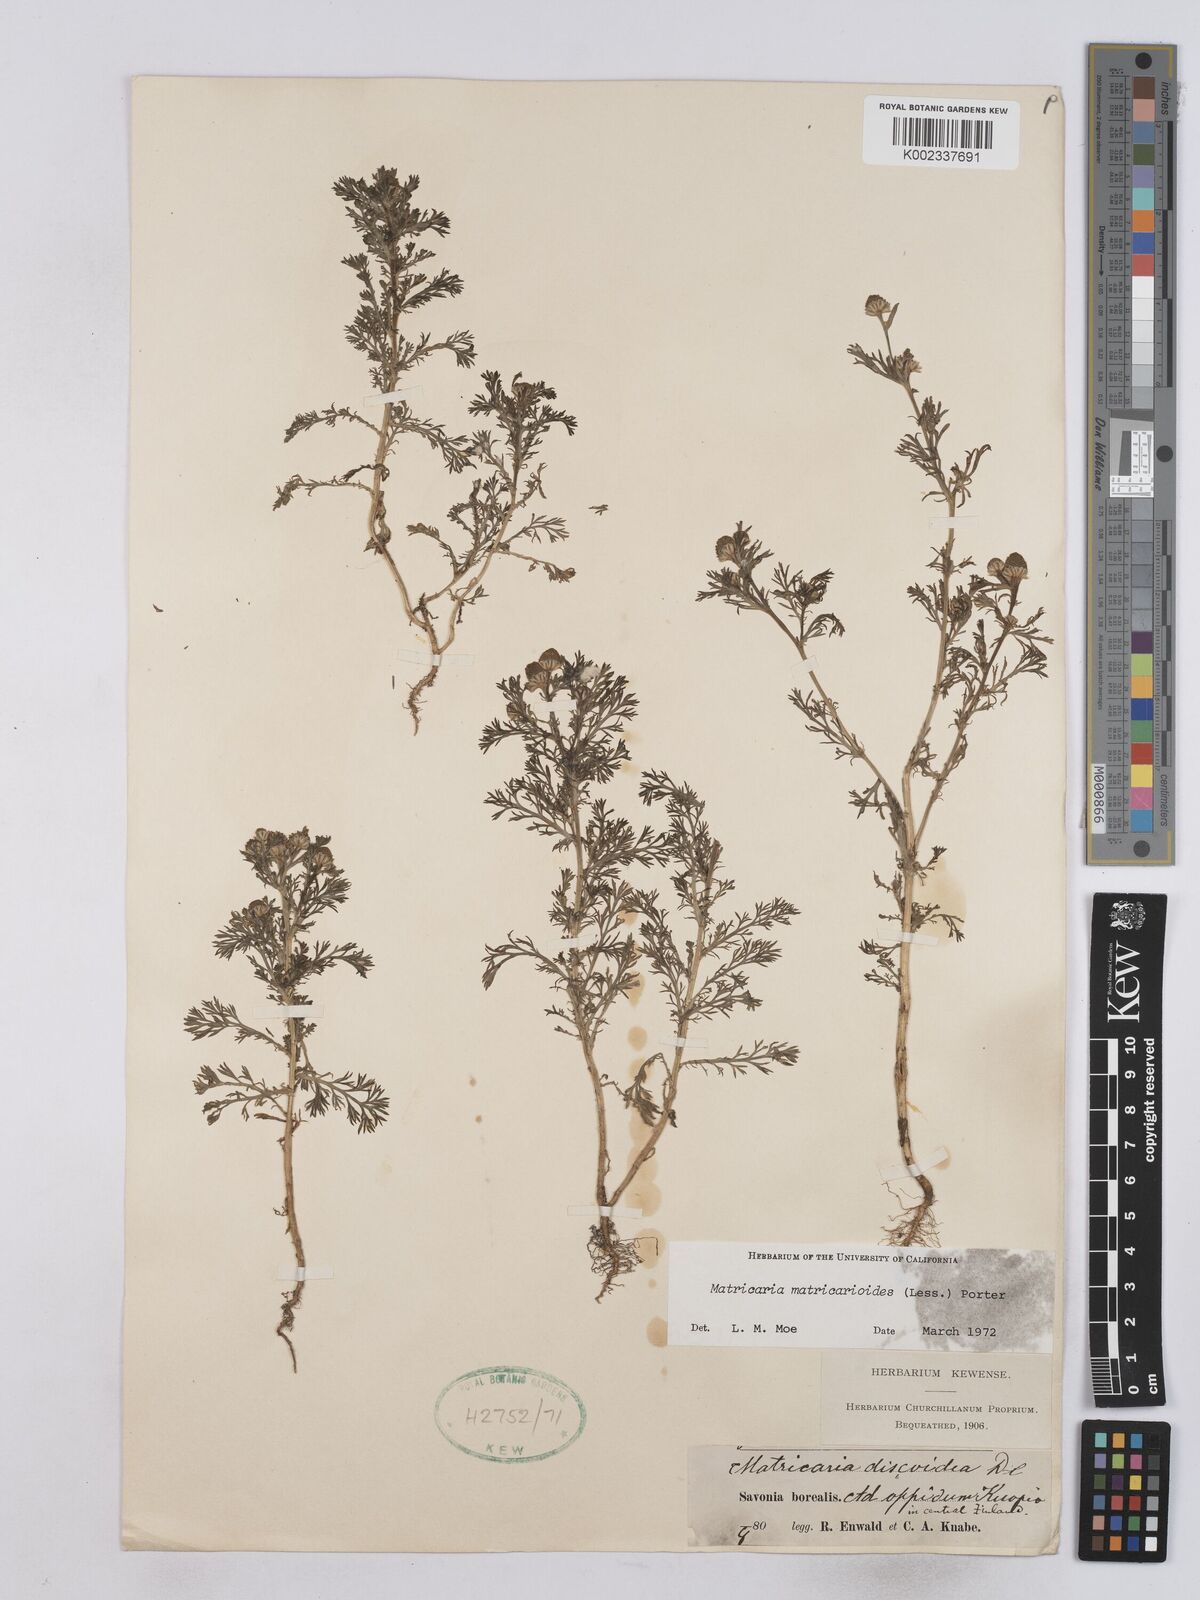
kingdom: Plantae
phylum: Tracheophyta
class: Magnoliopsida
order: Asterales
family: Asteraceae
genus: Matricaria
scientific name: Matricaria discoidea
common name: Disc mayweed
